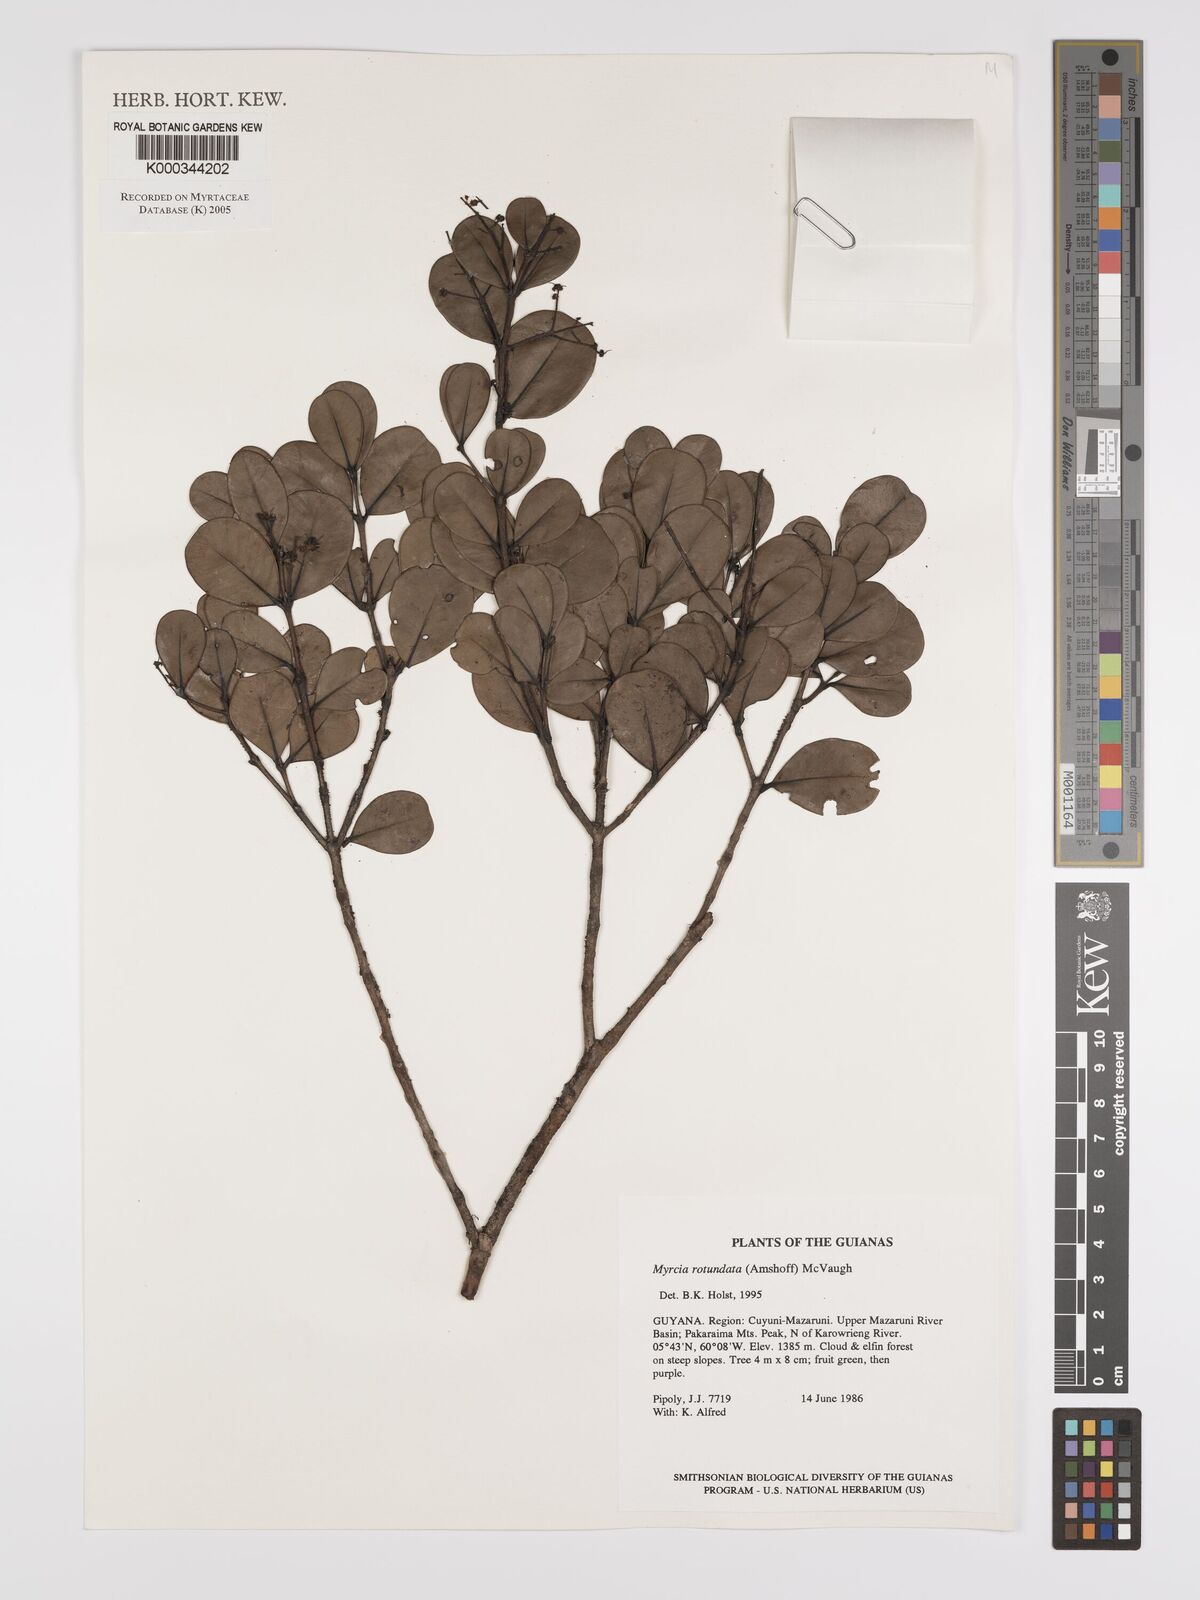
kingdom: Plantae
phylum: Tracheophyta
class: Magnoliopsida
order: Myrtales
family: Myrtaceae
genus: Myrcia
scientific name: Myrcia rotundata
